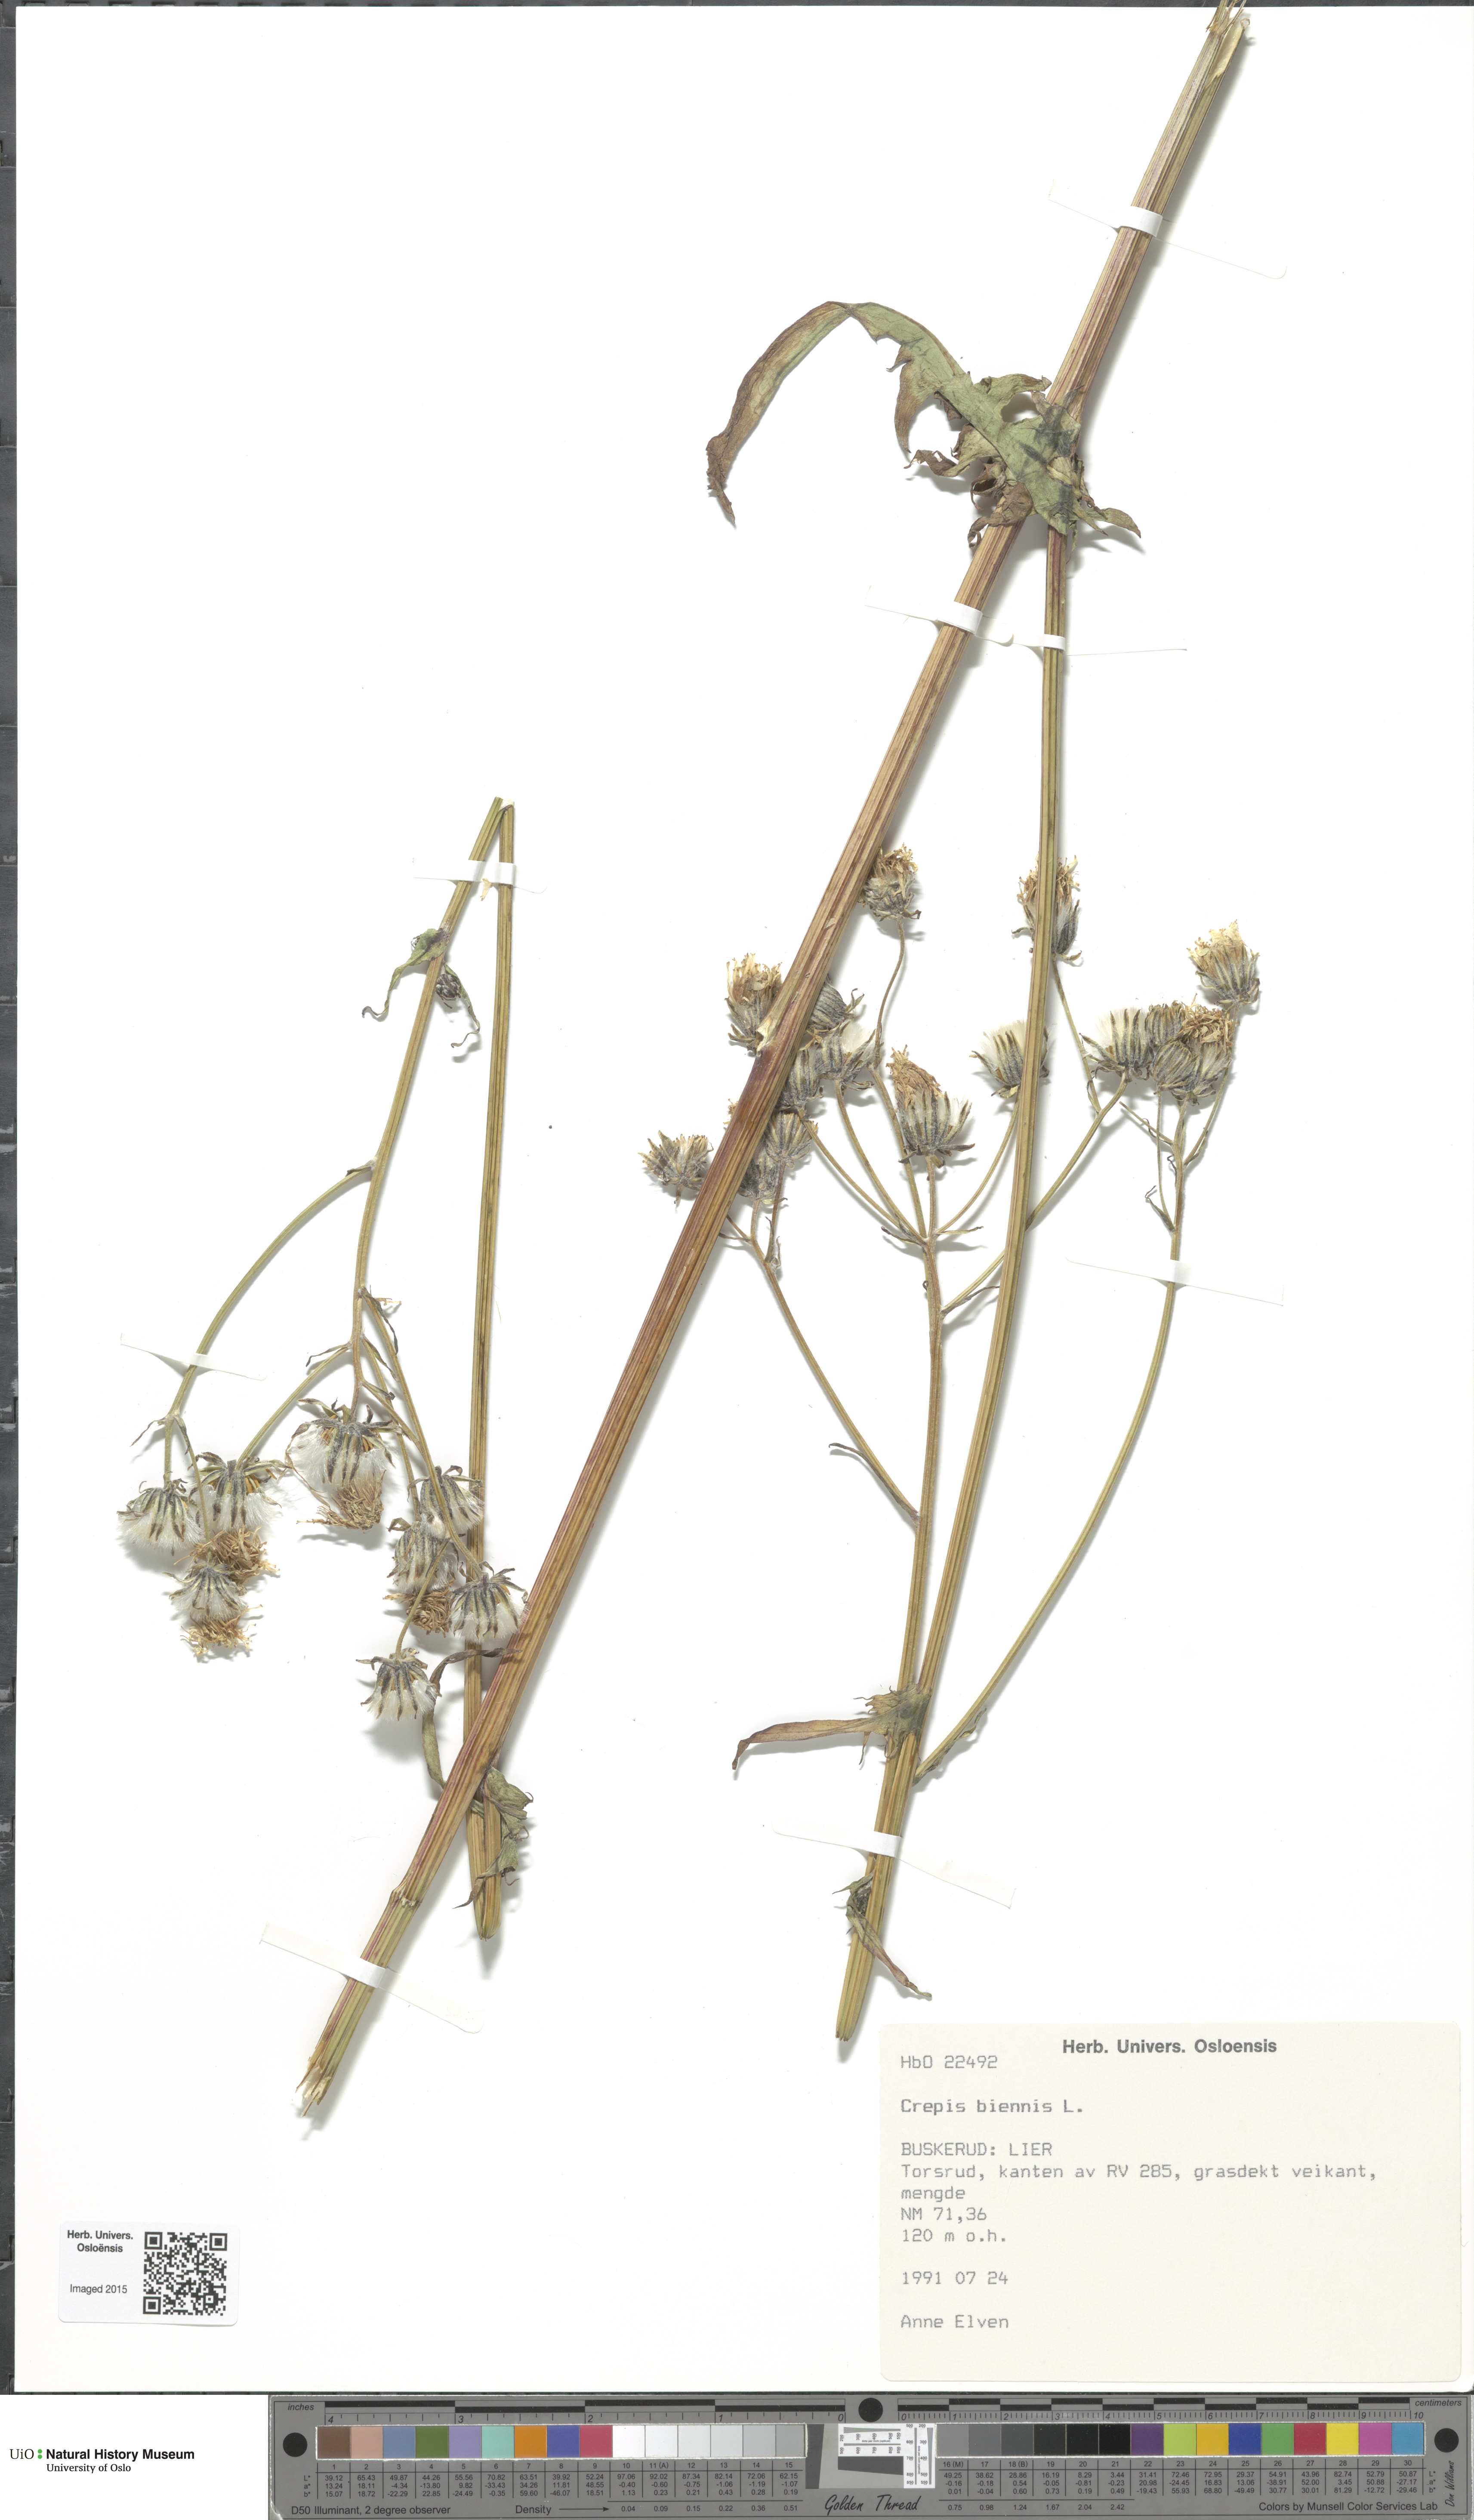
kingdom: Plantae
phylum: Tracheophyta
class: Magnoliopsida
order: Asterales
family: Asteraceae
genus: Crepis
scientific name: Crepis biennis
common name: Rough hawk's-beard
